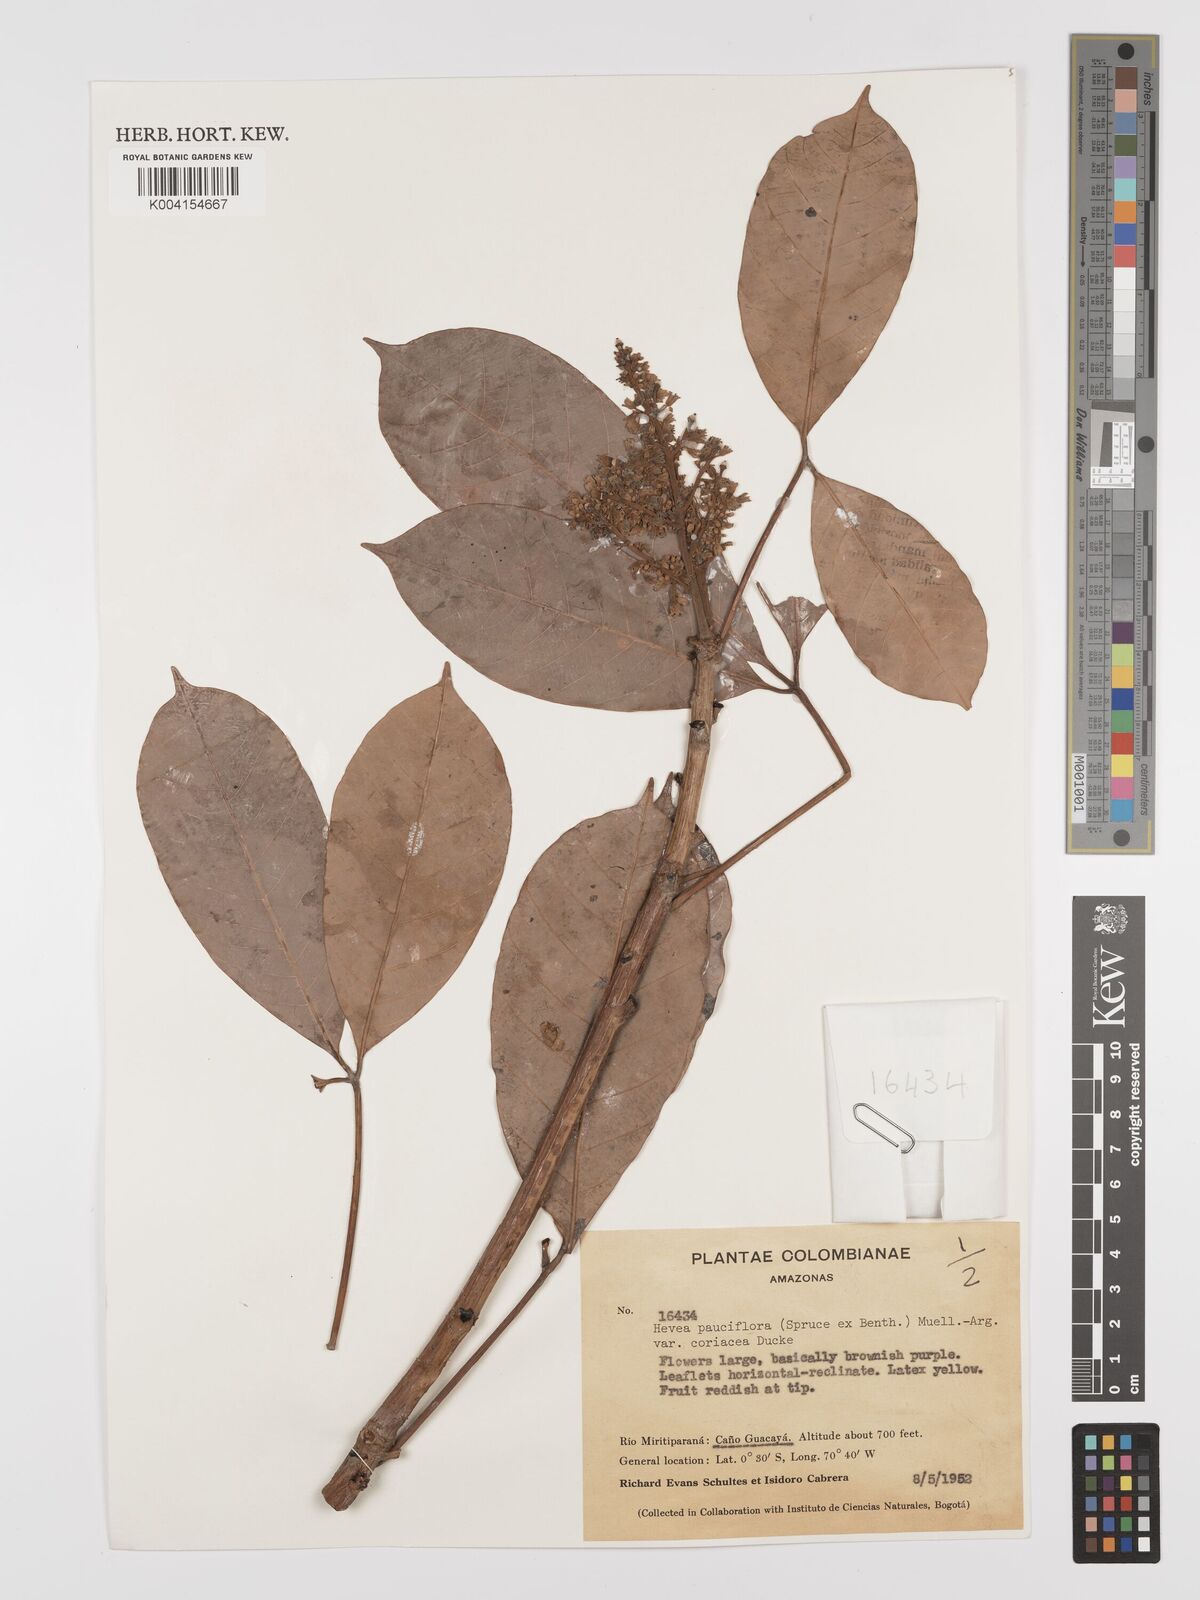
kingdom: Plantae
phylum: Tracheophyta
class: Magnoliopsida
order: Malpighiales
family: Euphorbiaceae
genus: Hevea
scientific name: Hevea pauciflora
